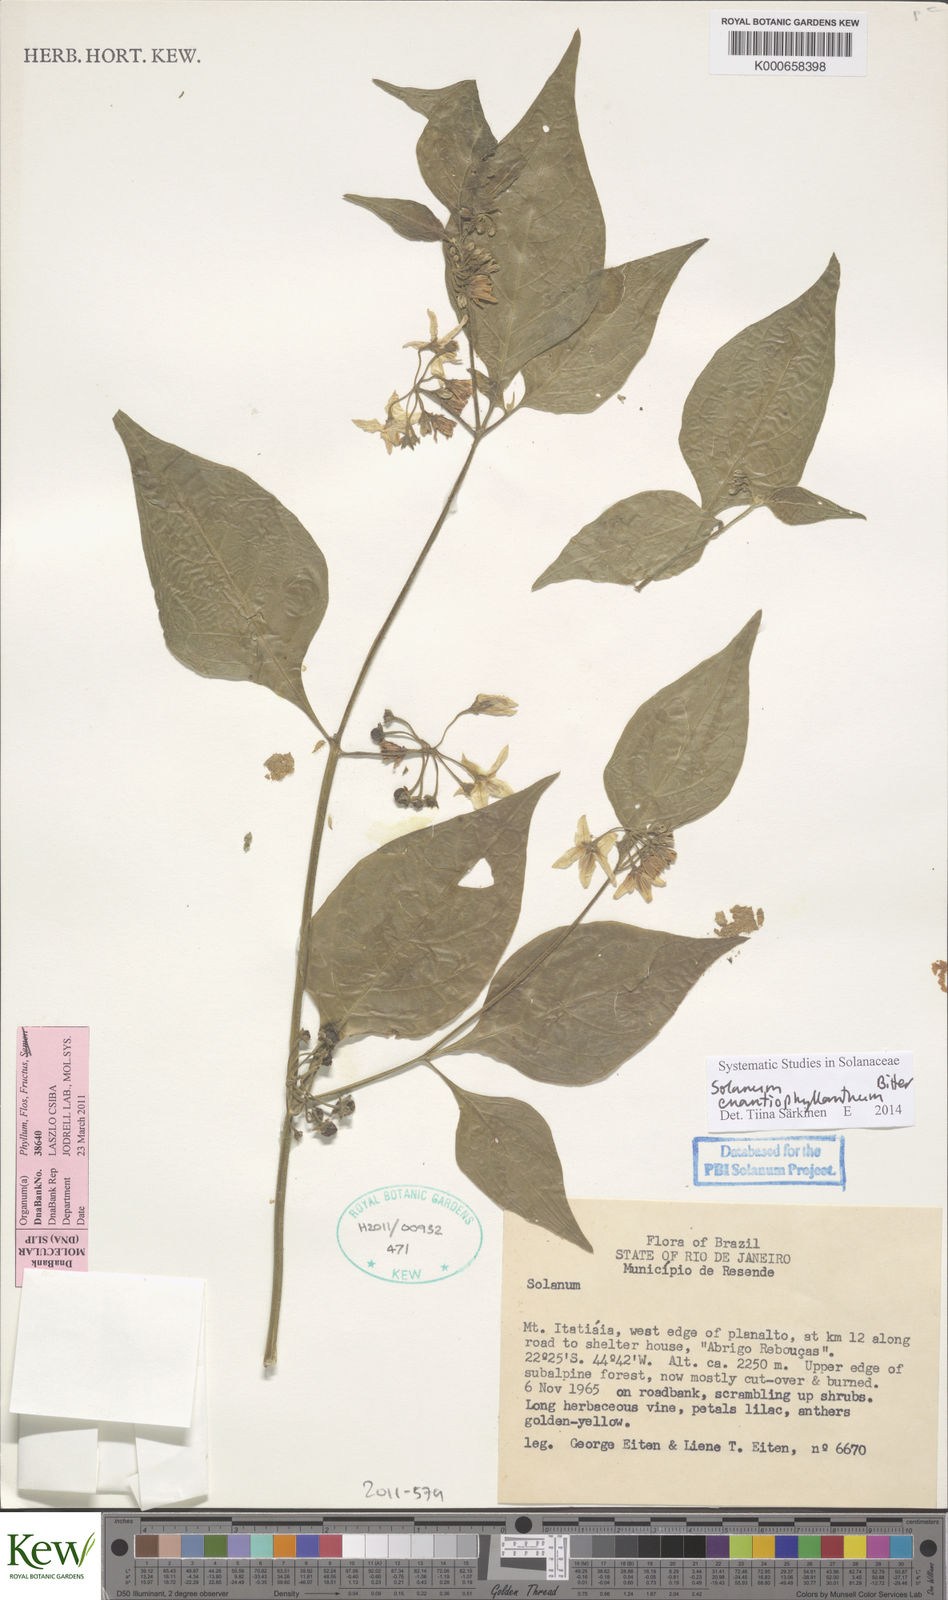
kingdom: Plantae
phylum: Tracheophyta
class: Magnoliopsida
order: Solanales
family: Solanaceae
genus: Solanum
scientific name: Solanum enantiophyllanthum
